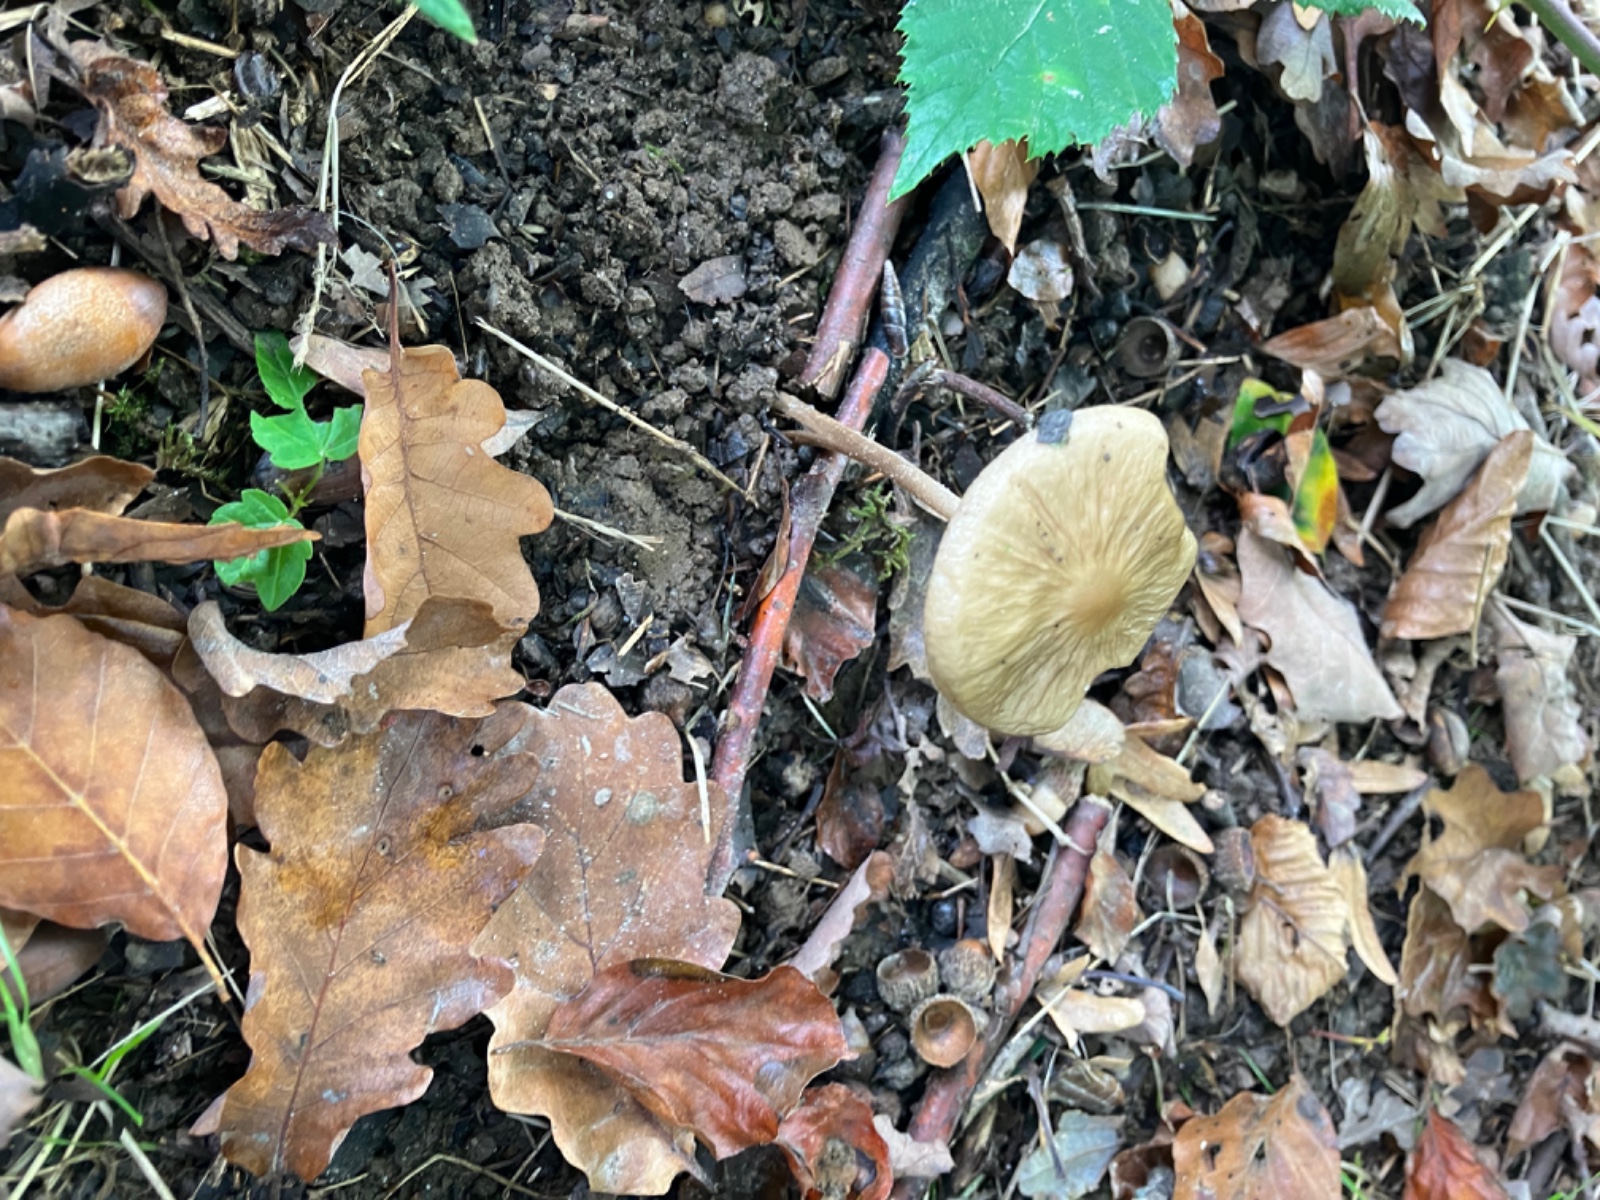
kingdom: Fungi
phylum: Basidiomycota
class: Agaricomycetes
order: Agaricales
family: Physalacriaceae
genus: Hymenopellis
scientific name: Hymenopellis radicata
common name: almindelig pælerodshat
